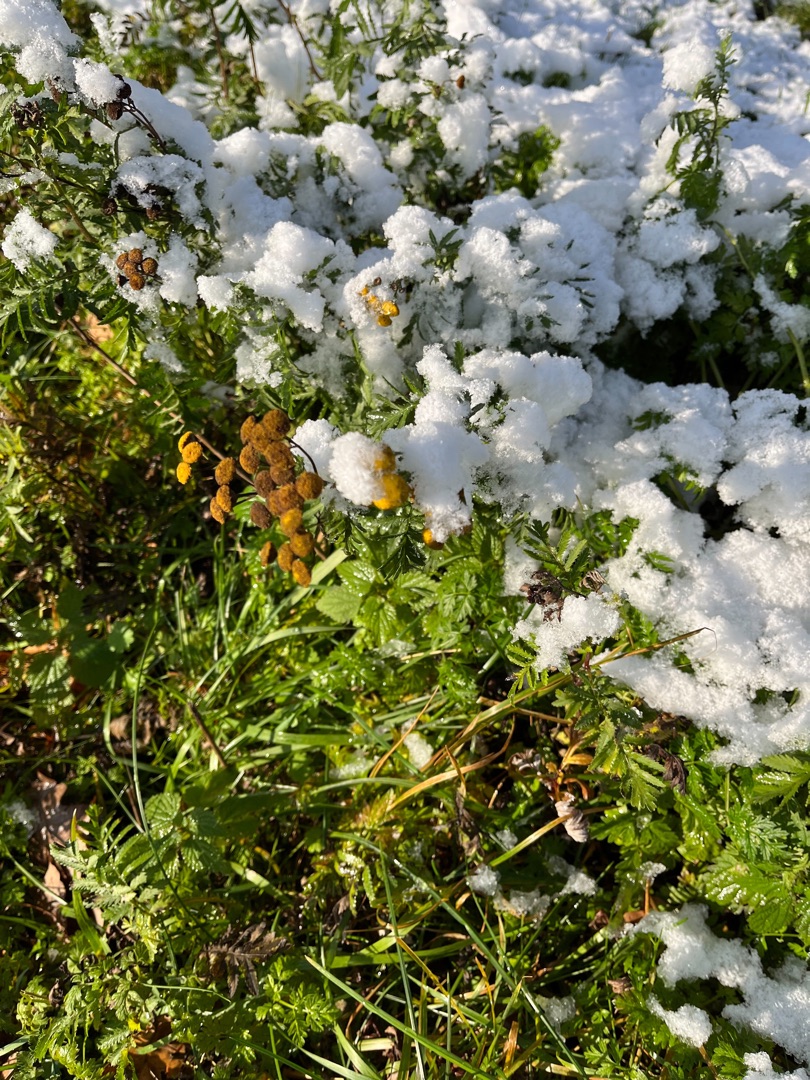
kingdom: Plantae
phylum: Tracheophyta
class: Magnoliopsida
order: Asterales
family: Asteraceae
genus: Tanacetum
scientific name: Tanacetum vulgare
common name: Rejnfan
